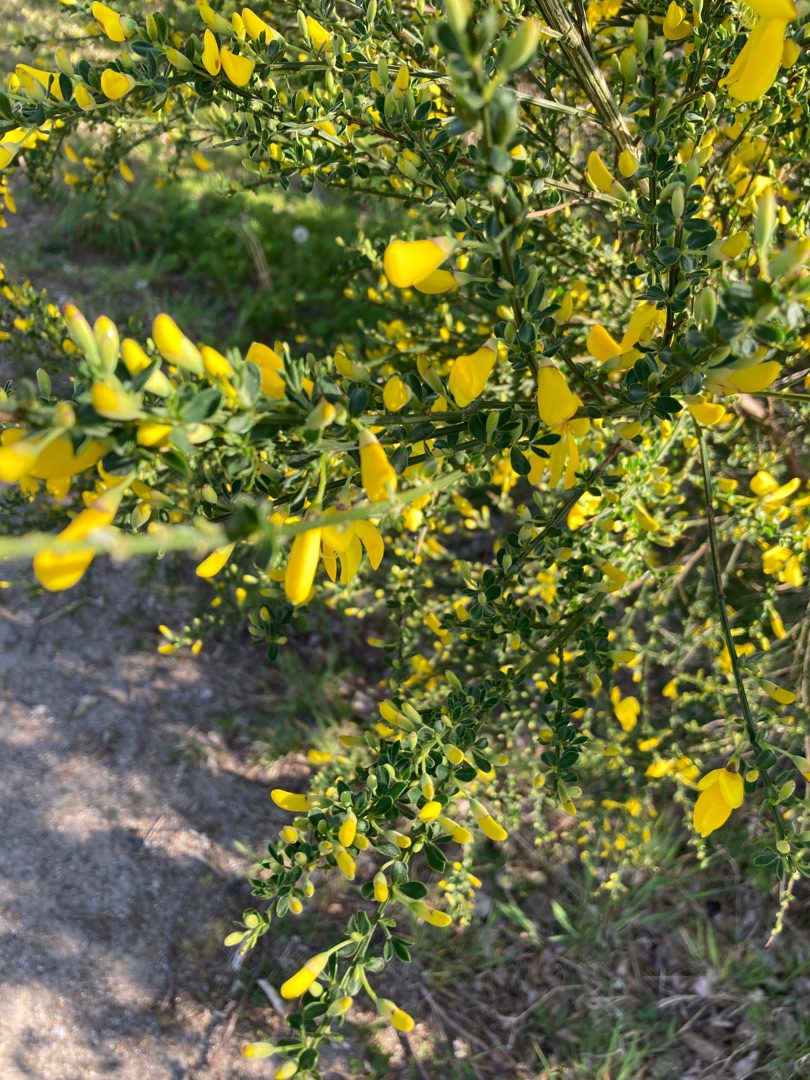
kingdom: Plantae
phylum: Tracheophyta
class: Magnoliopsida
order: Fabales
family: Fabaceae
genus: Cytisus
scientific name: Cytisus scoparius
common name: Almindelig gyvel
